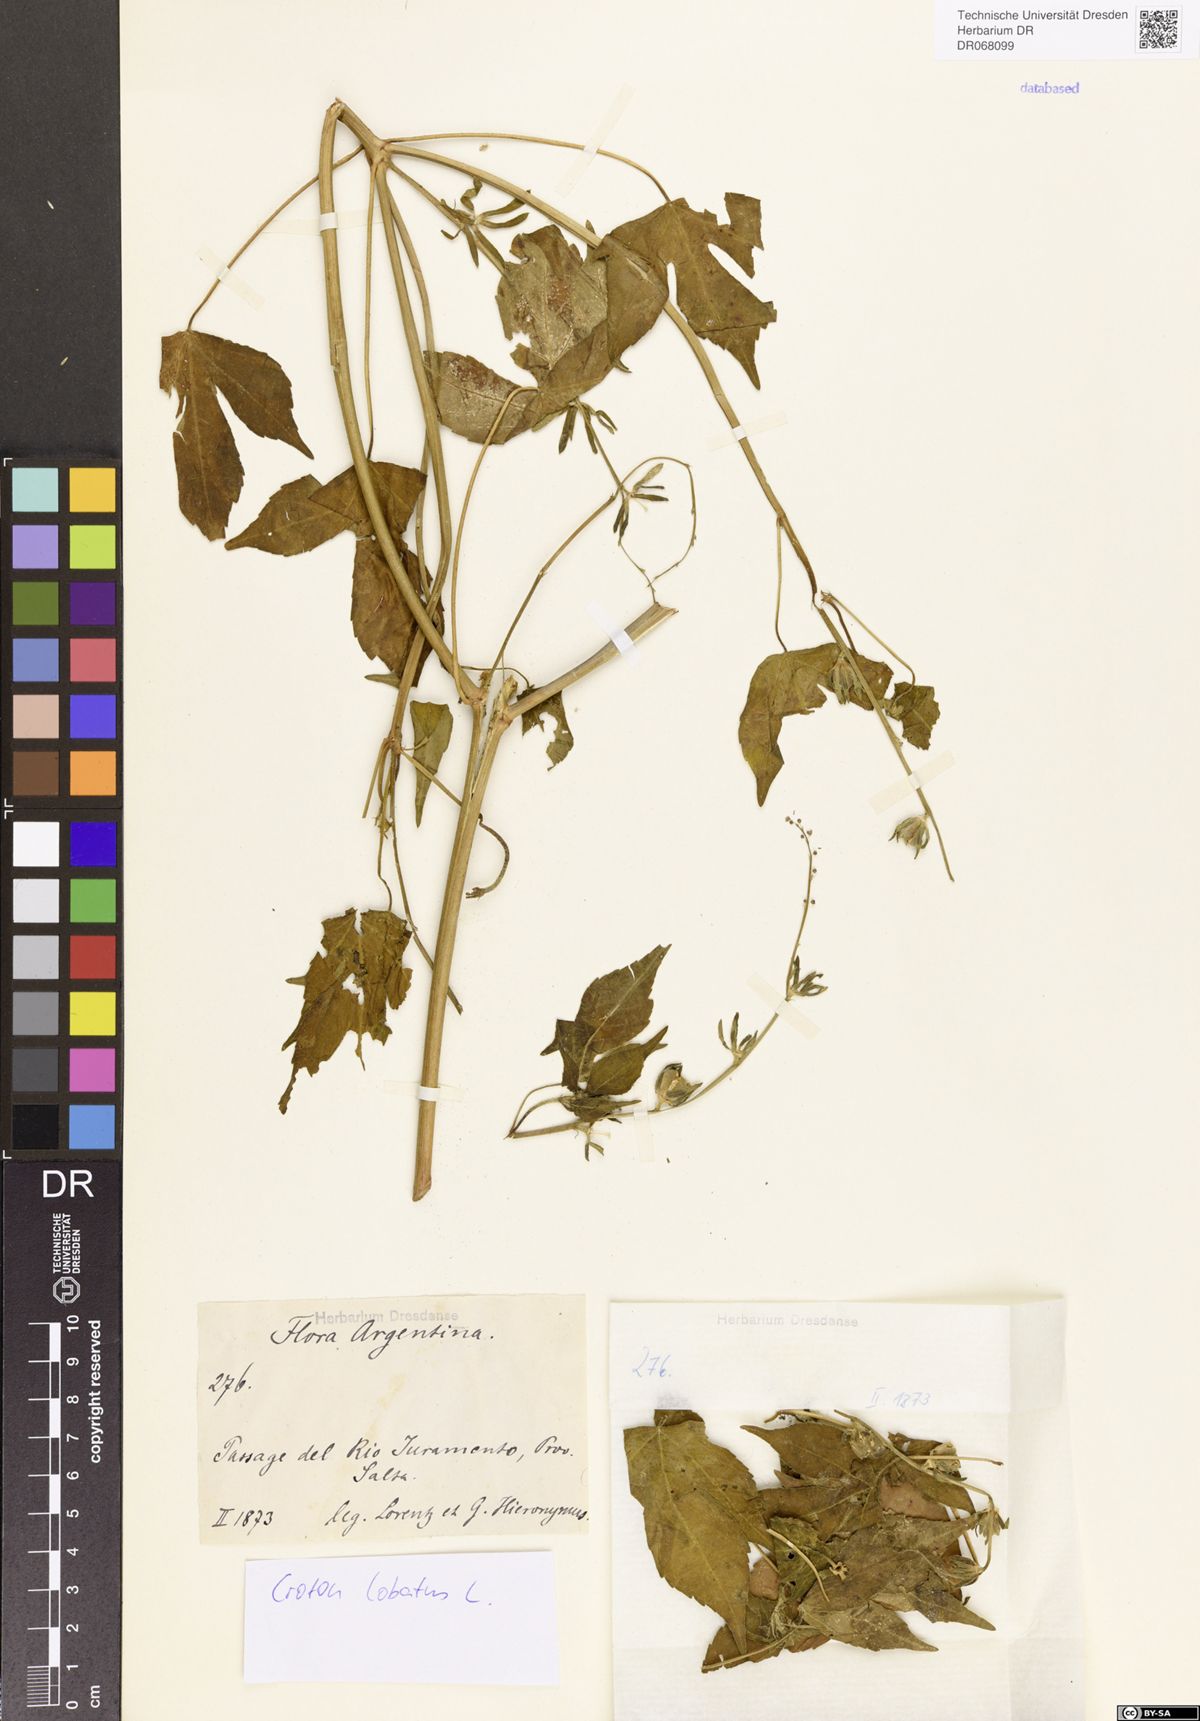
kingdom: Plantae
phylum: Tracheophyta
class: Magnoliopsida
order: Malpighiales
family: Euphorbiaceae
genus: Astraea
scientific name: Astraea lobata
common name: Lobed croton
